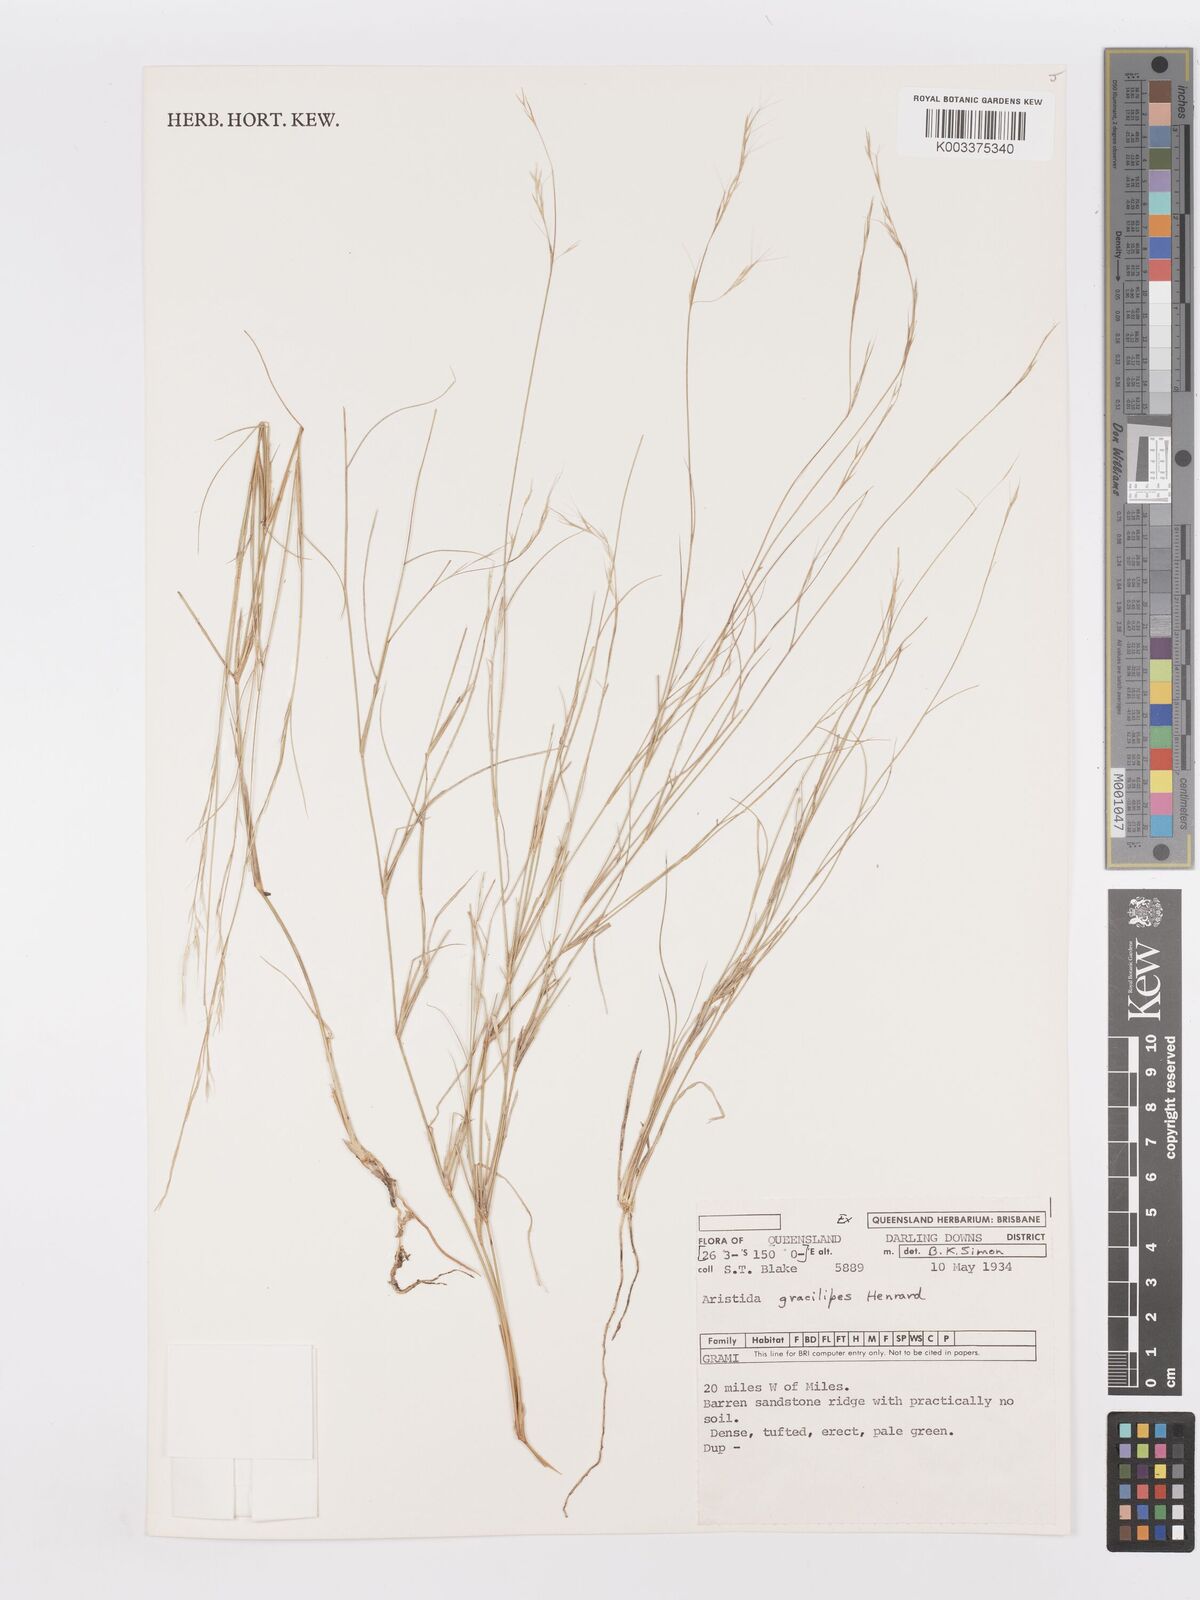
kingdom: Plantae
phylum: Tracheophyta
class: Liliopsida
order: Poales
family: Poaceae
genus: Aristida
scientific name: Aristida gracilipes
